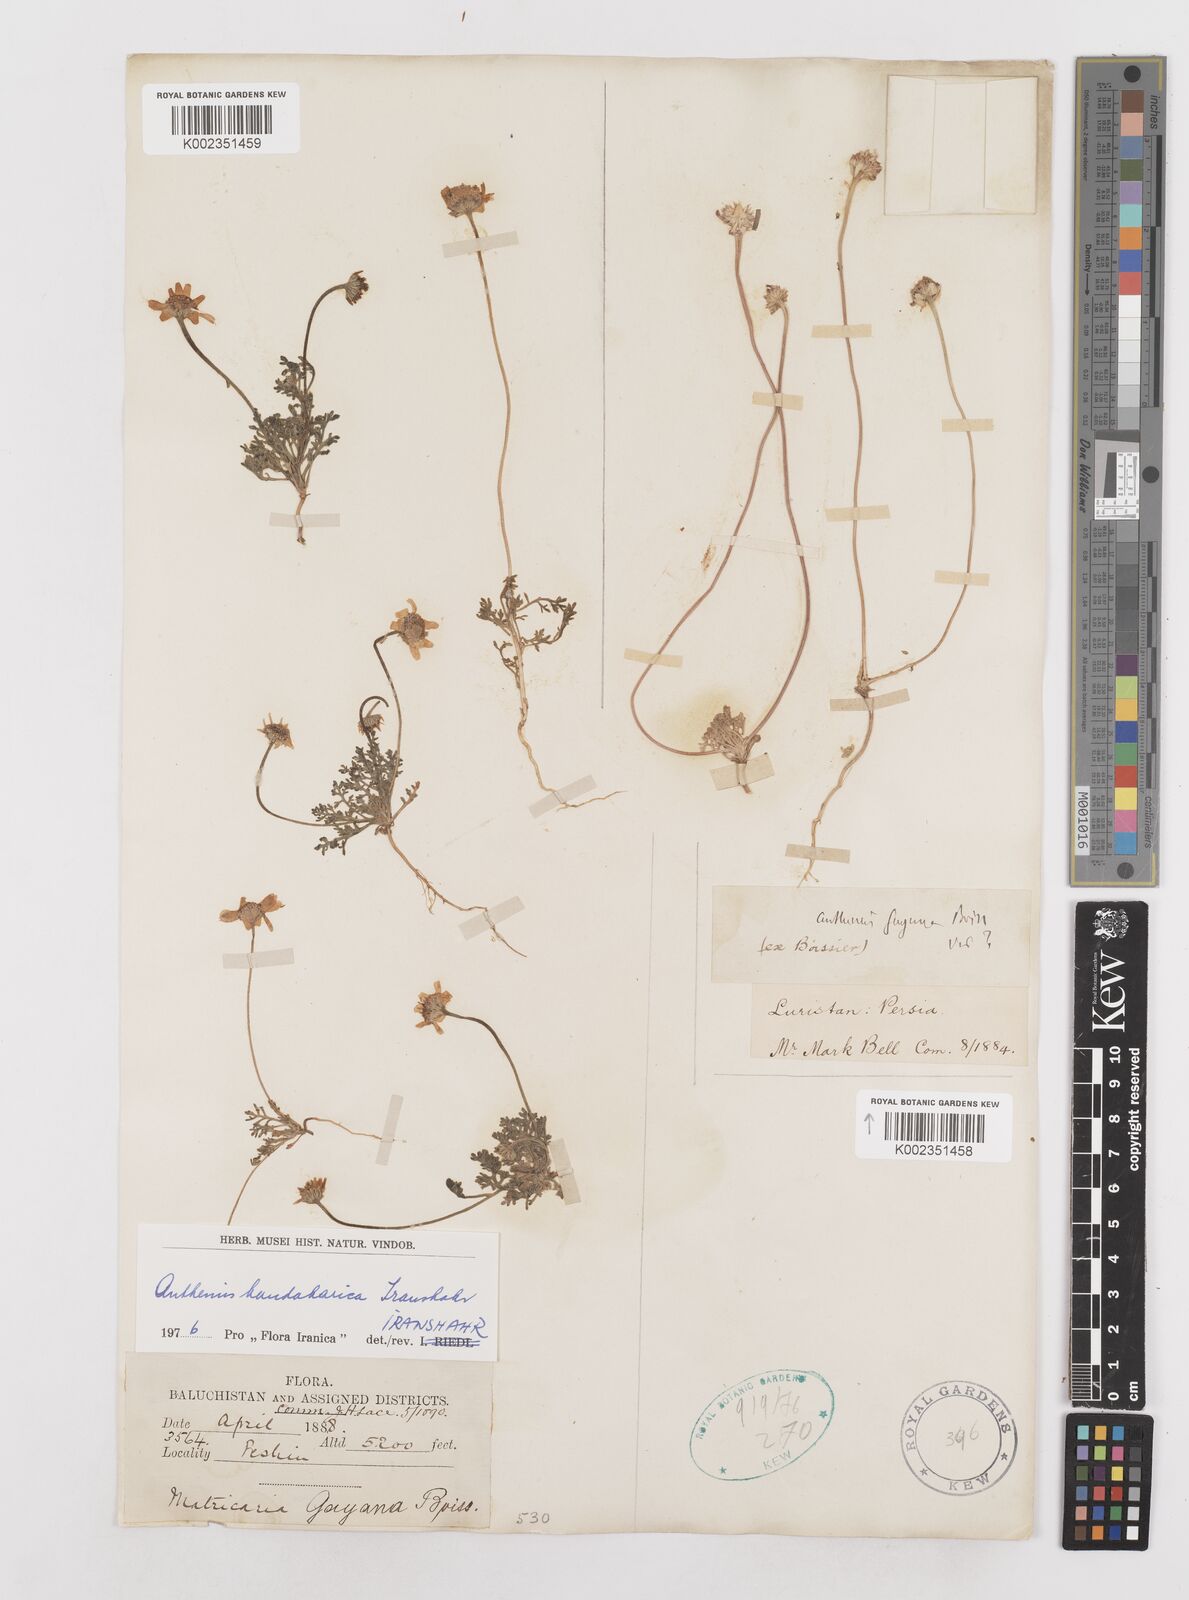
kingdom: Plantae
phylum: Tracheophyta
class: Magnoliopsida
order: Asterales
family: Asteraceae
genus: Anthemis
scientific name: Anthemis gayana
